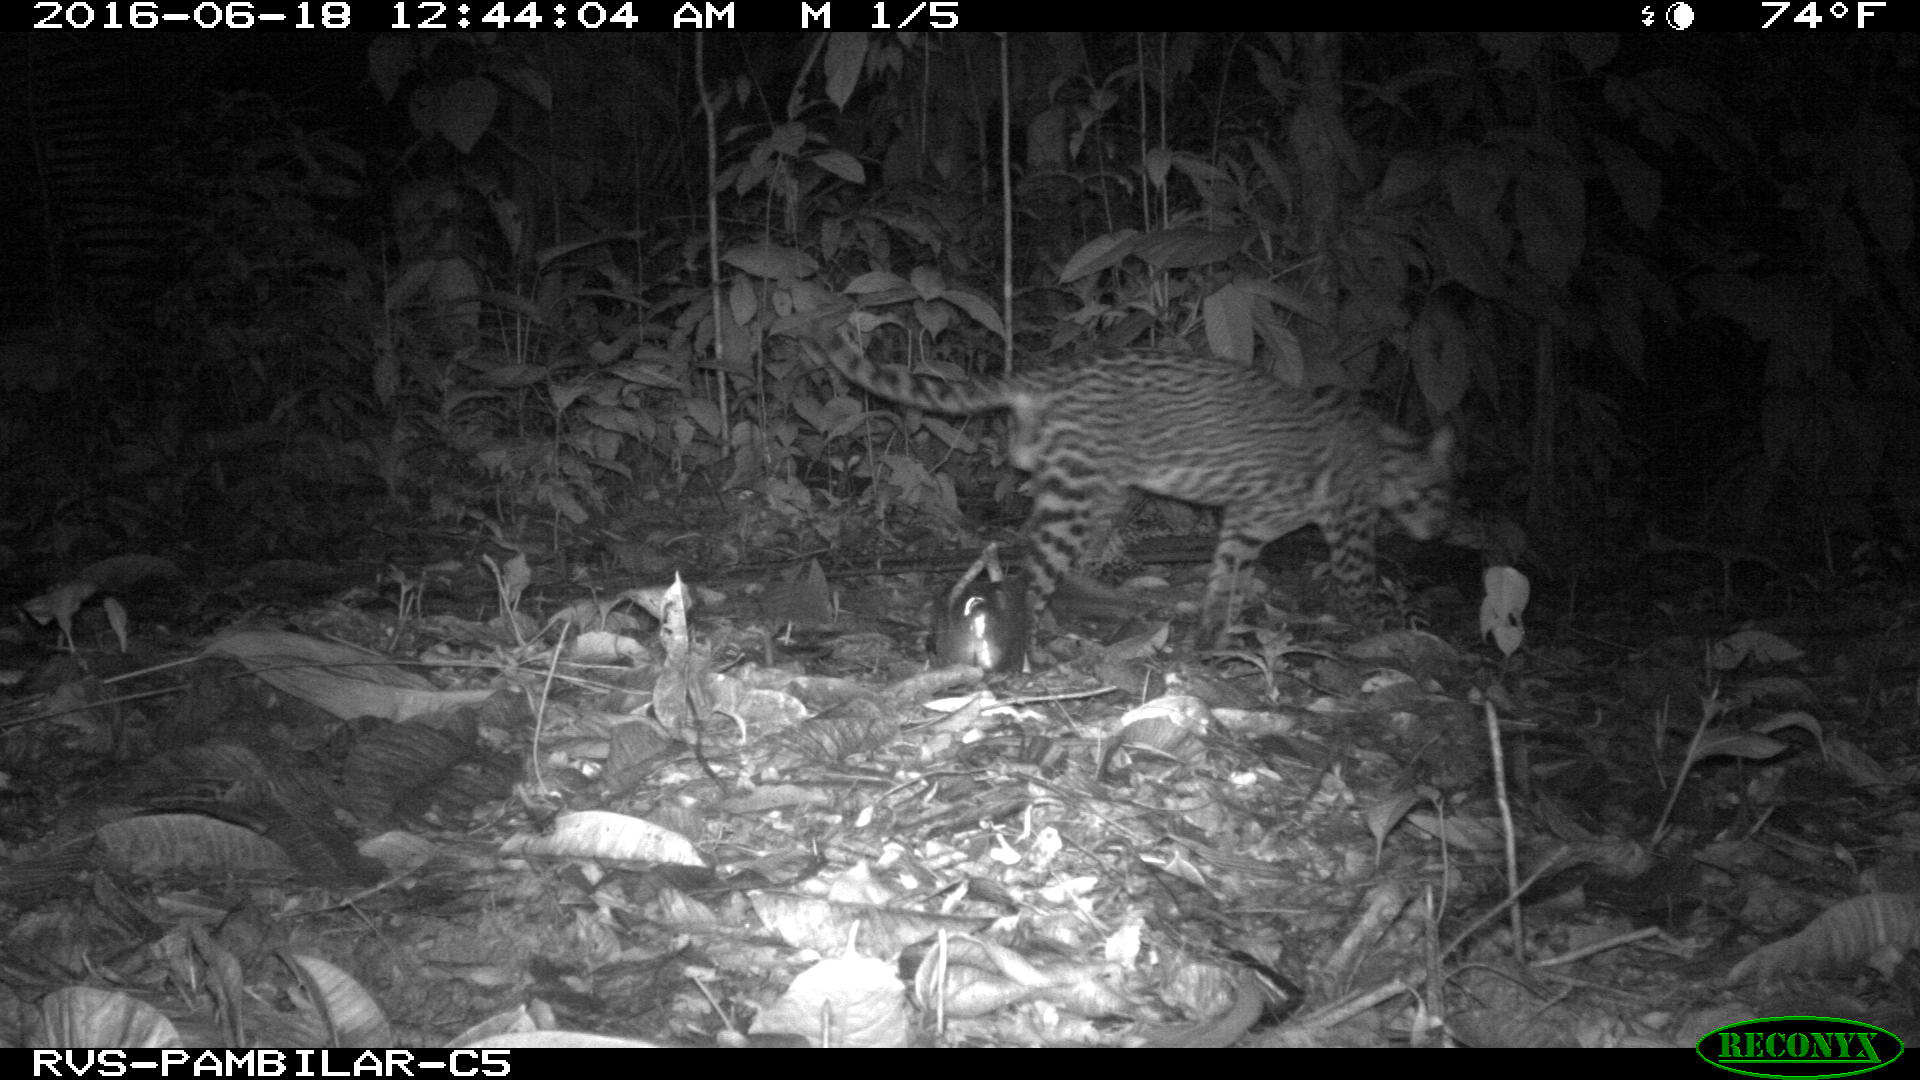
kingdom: Animalia
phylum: Chordata
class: Mammalia
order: Carnivora
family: Felidae
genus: Leopardus
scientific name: Leopardus pardalis
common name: Ocelot
